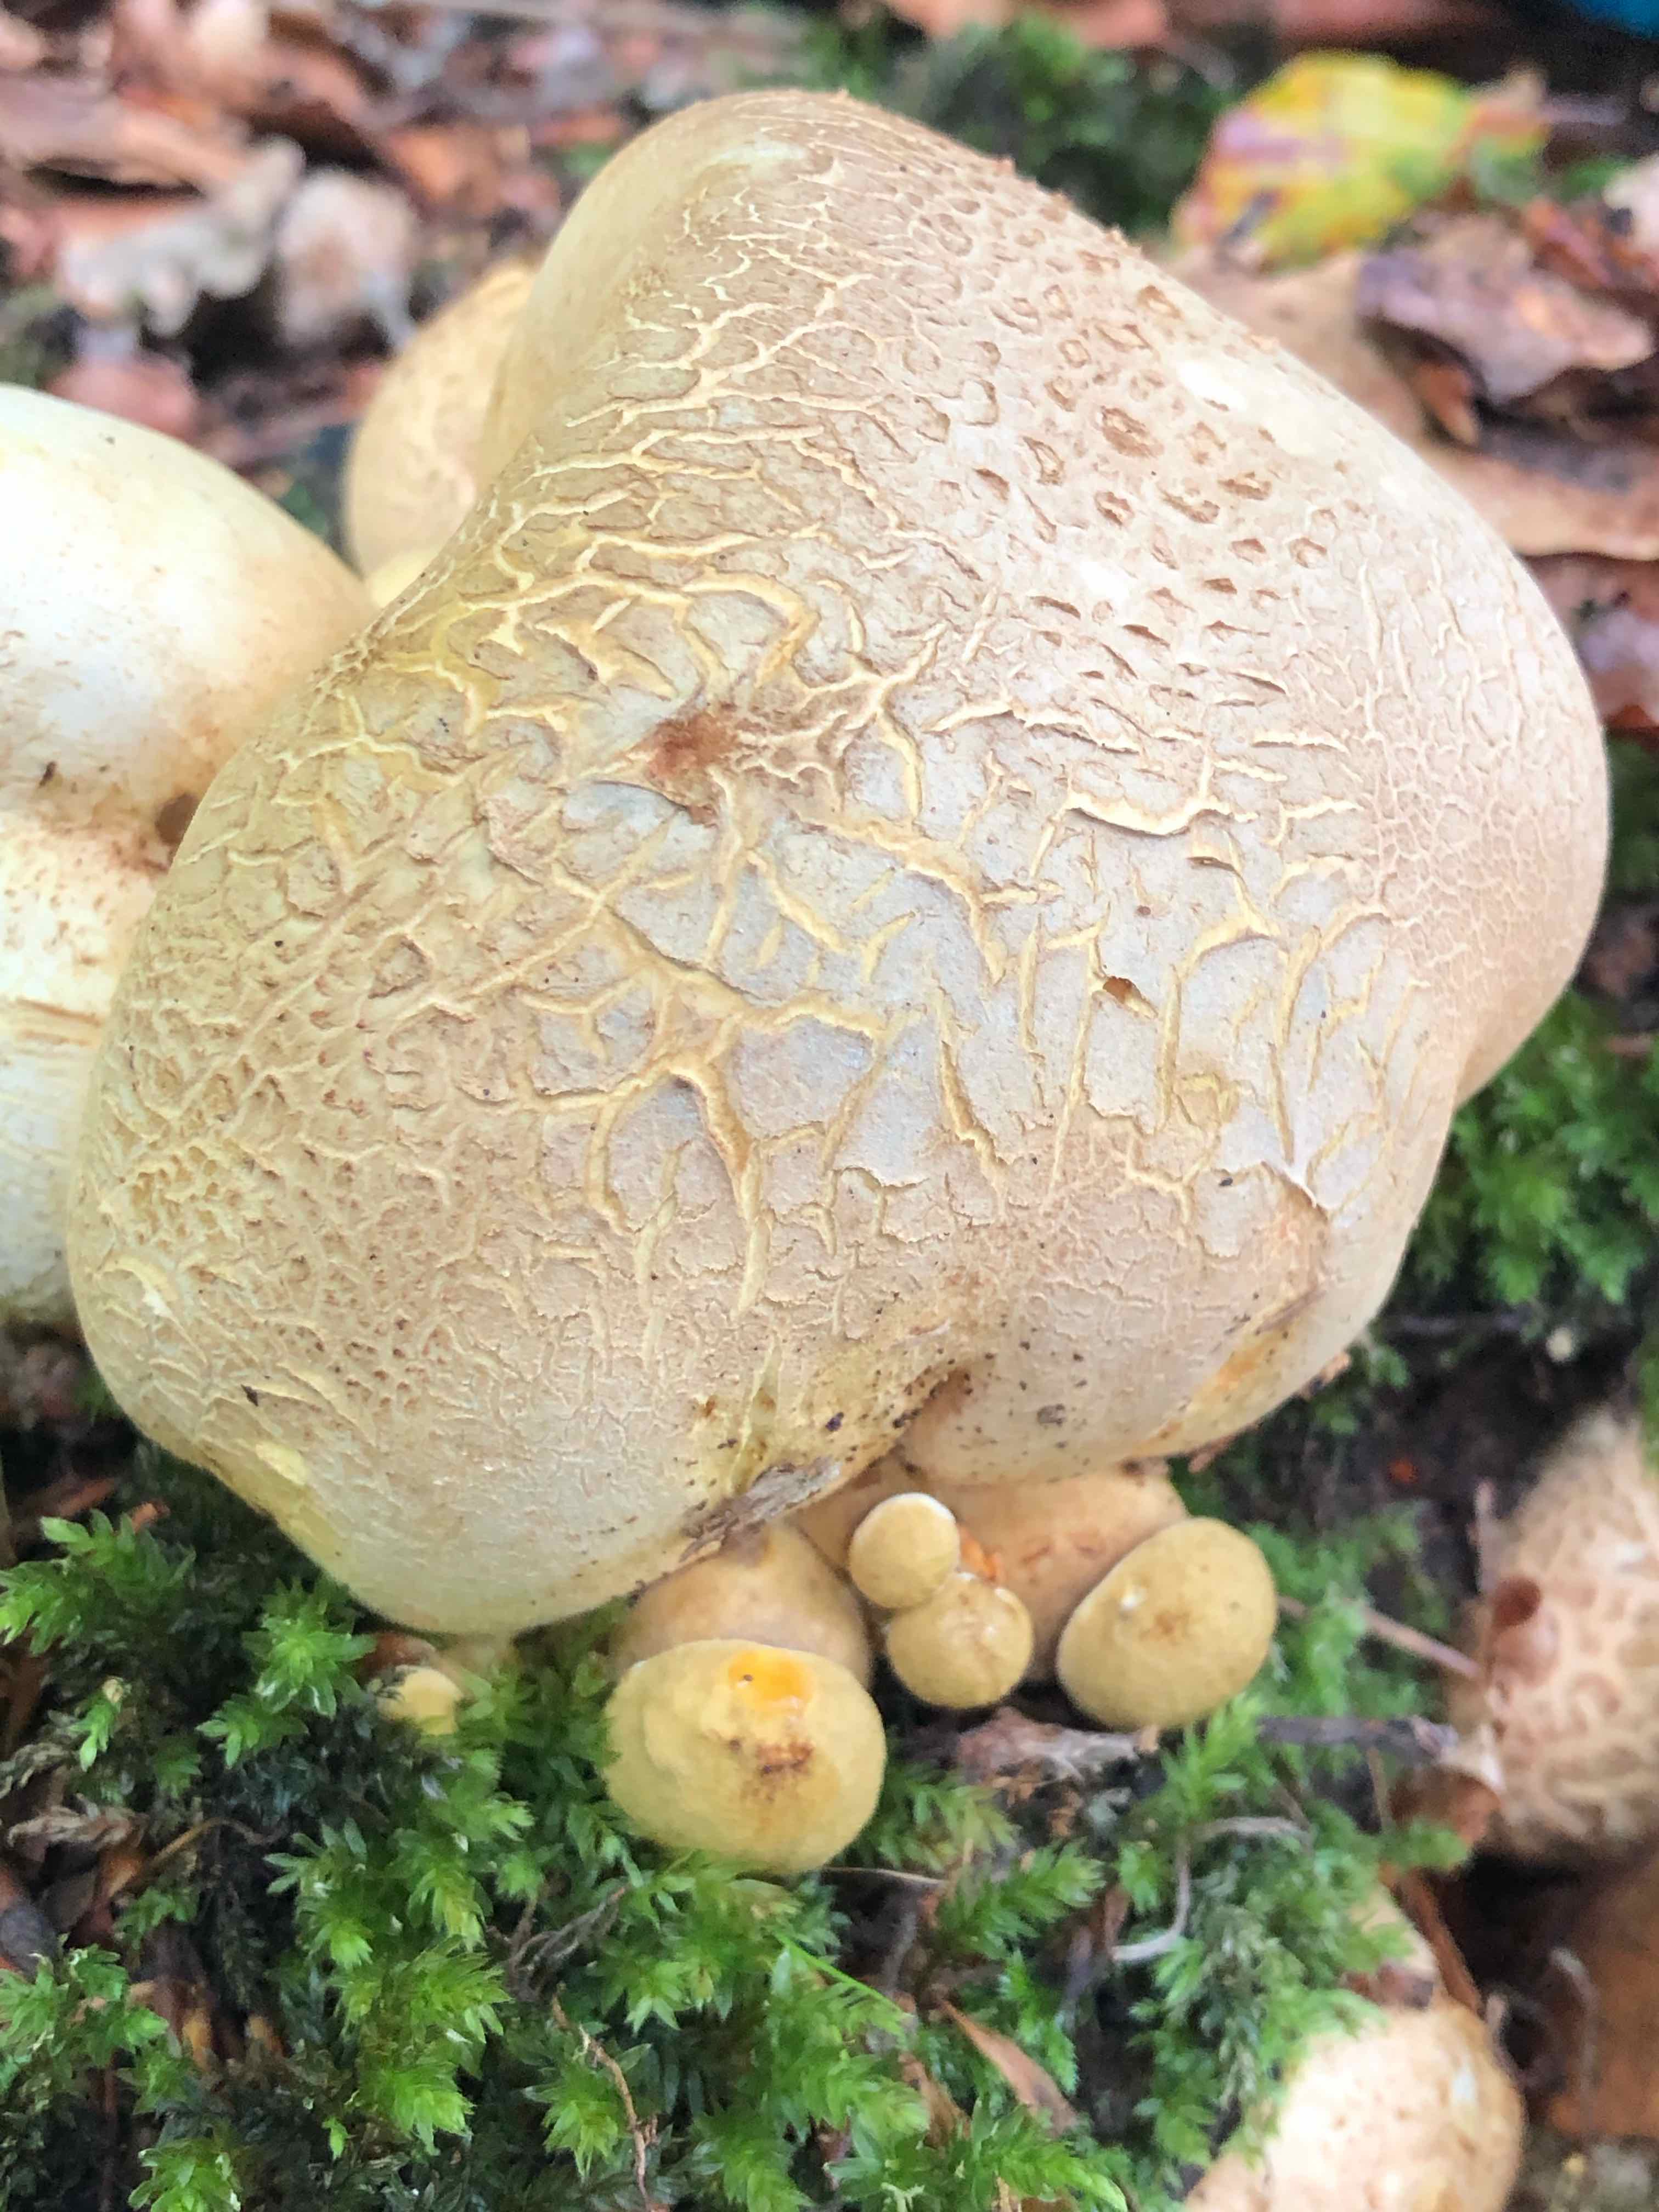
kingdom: Fungi
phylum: Basidiomycota
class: Agaricomycetes
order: Boletales
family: Boletaceae
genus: Pseudoboletus
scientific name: Pseudoboletus parasiticus
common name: snyltende rørhat
